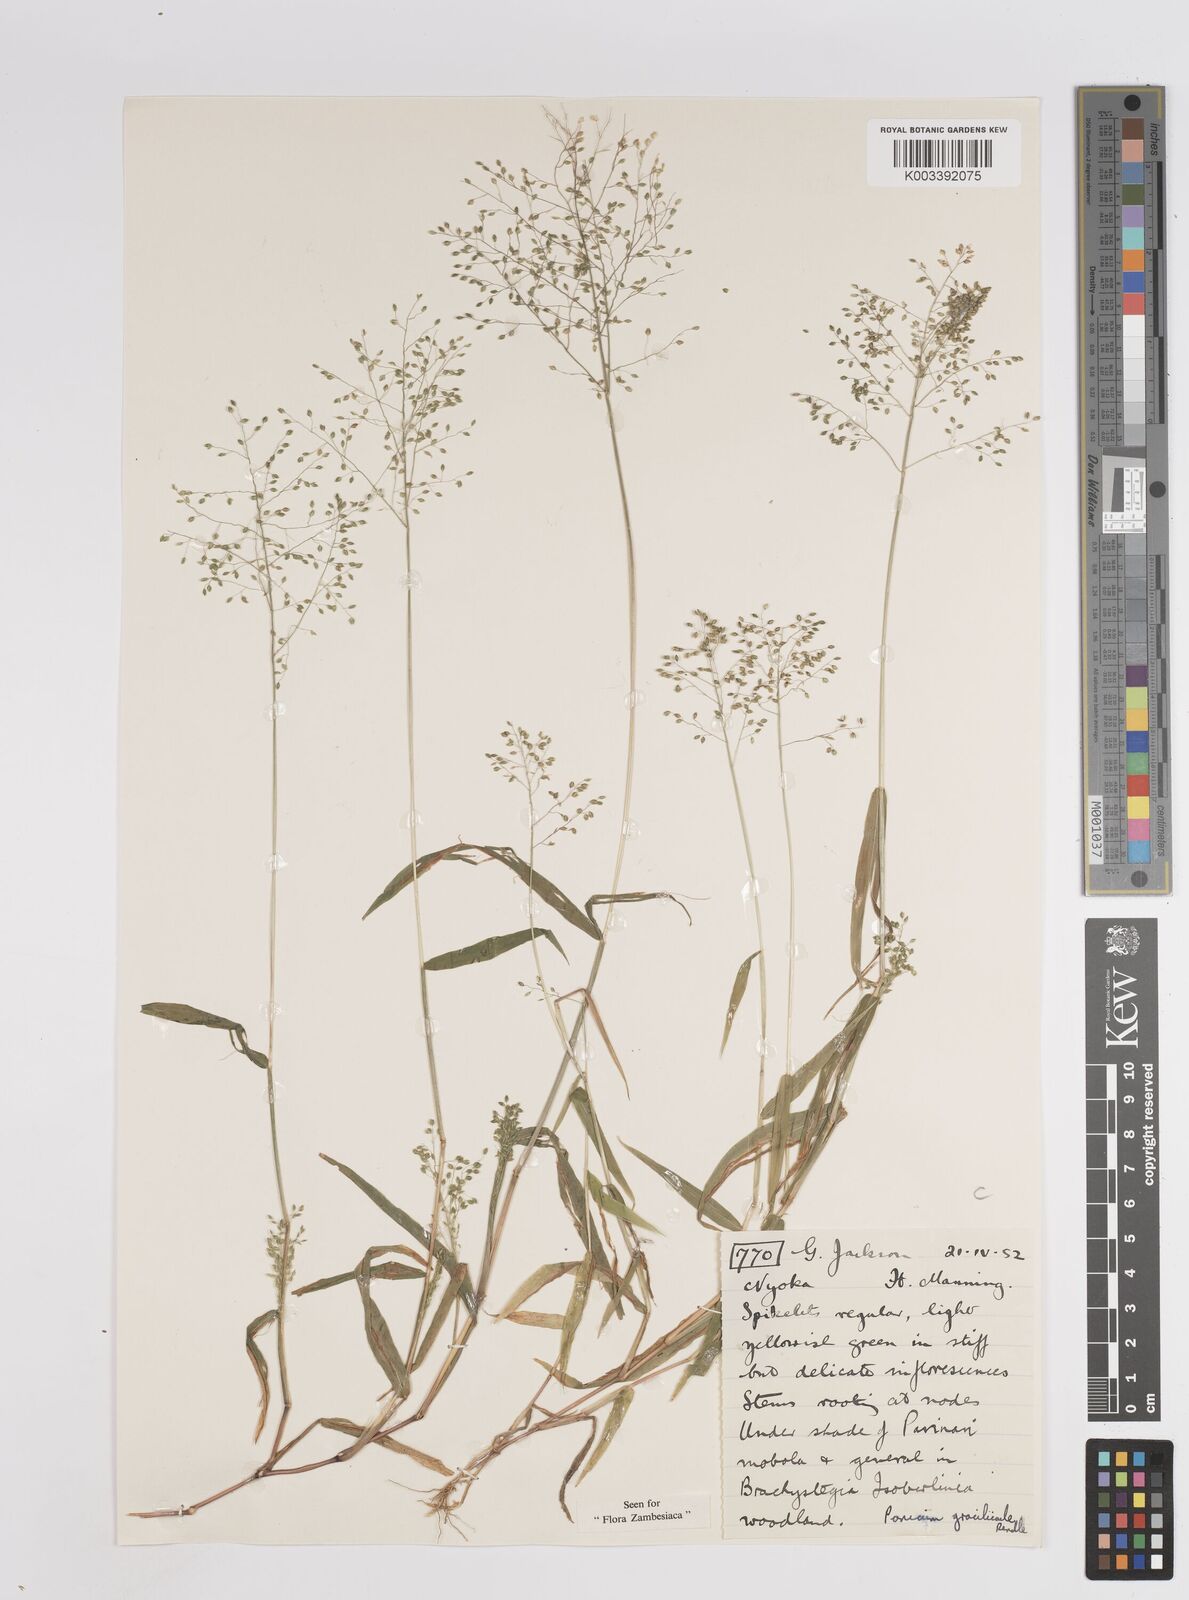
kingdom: Plantae
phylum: Tracheophyta
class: Liliopsida
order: Poales
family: Poaceae
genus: Trichanthecium
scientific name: Trichanthecium gracilicaule
